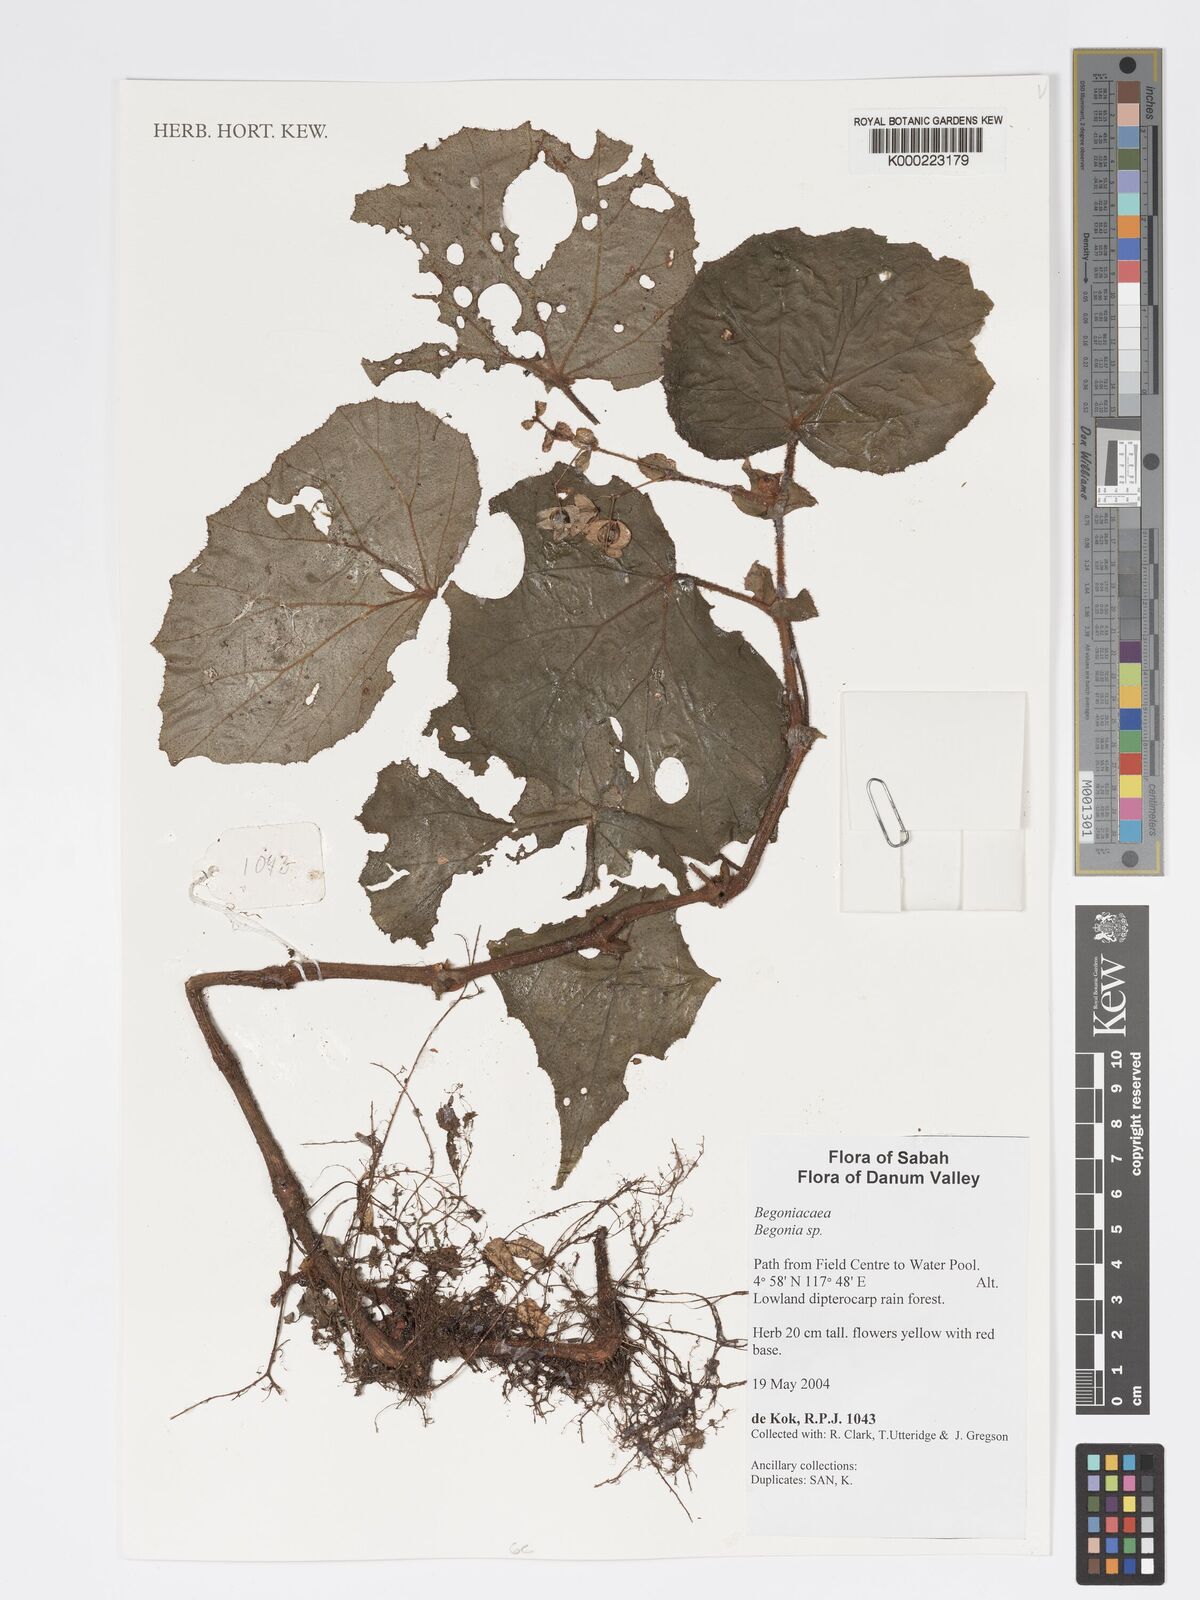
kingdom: Plantae
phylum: Tracheophyta
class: Magnoliopsida
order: Cucurbitales
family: Begoniaceae
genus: Begonia
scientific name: Begonia
